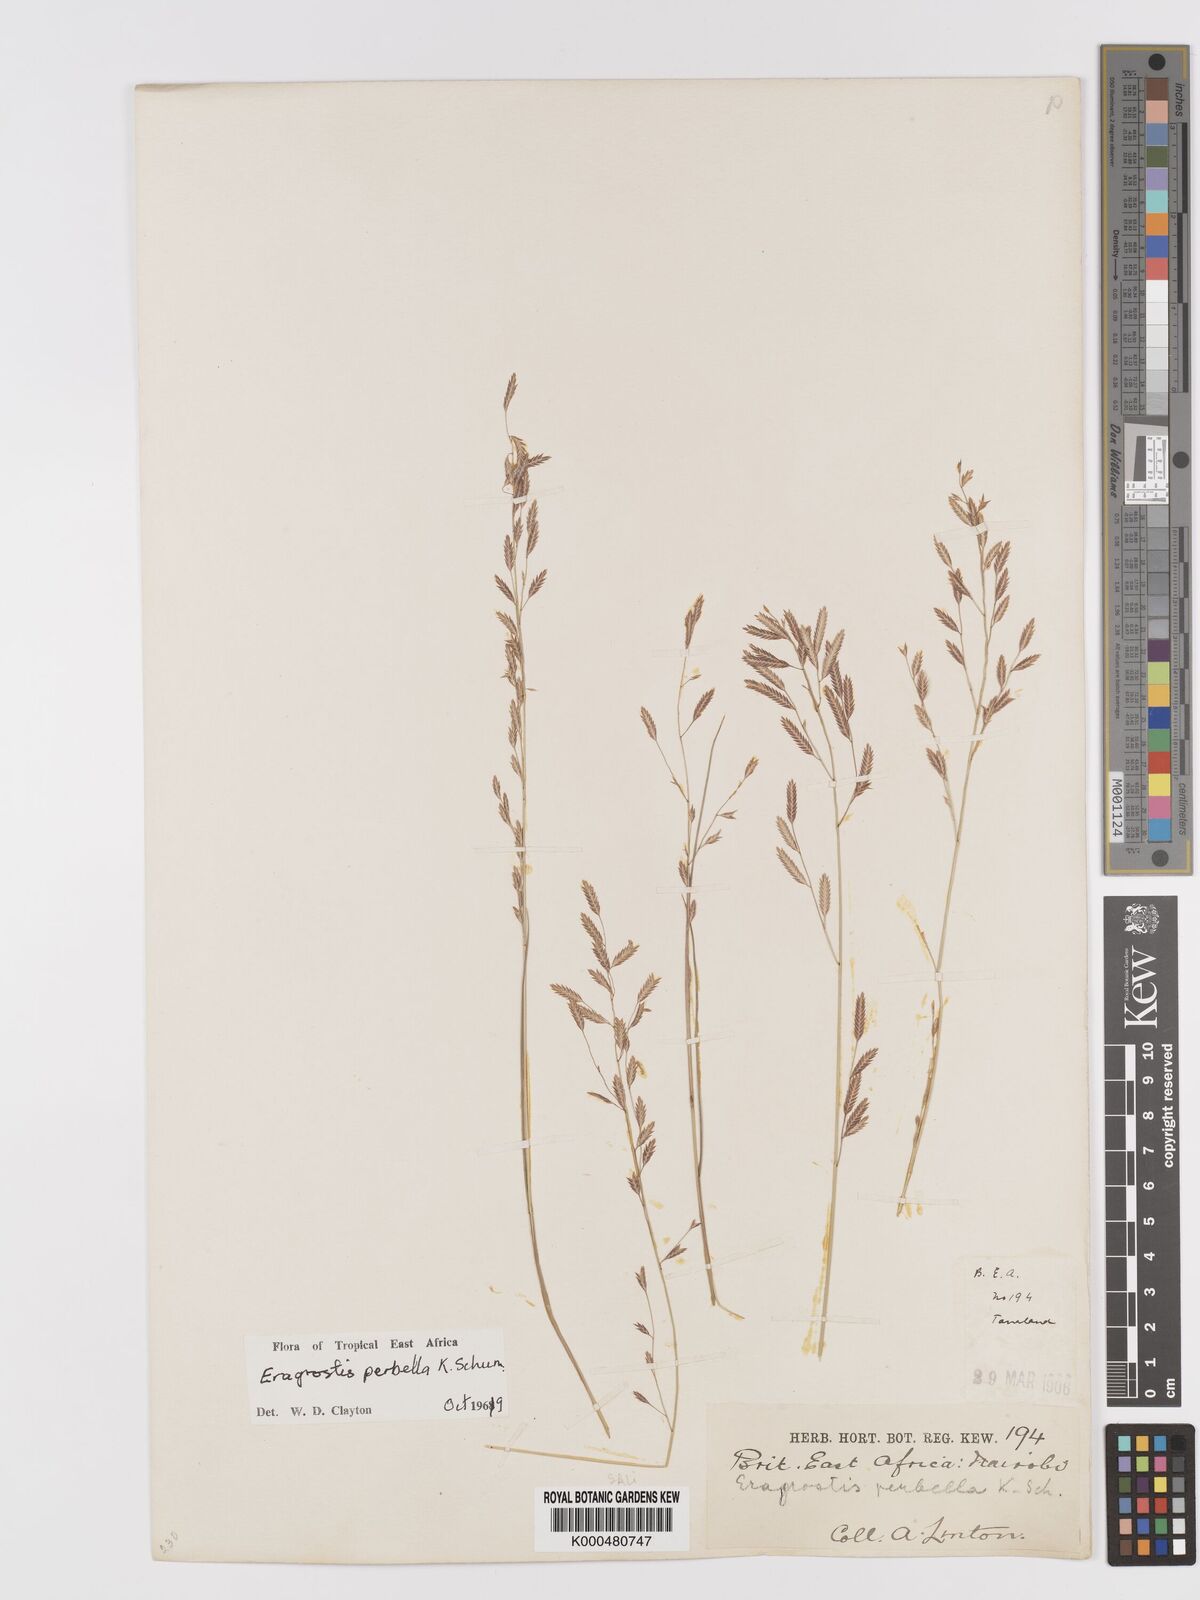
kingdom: Plantae
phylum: Tracheophyta
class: Liliopsida
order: Poales
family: Poaceae
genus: Eragrostis
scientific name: Eragrostis perbella
